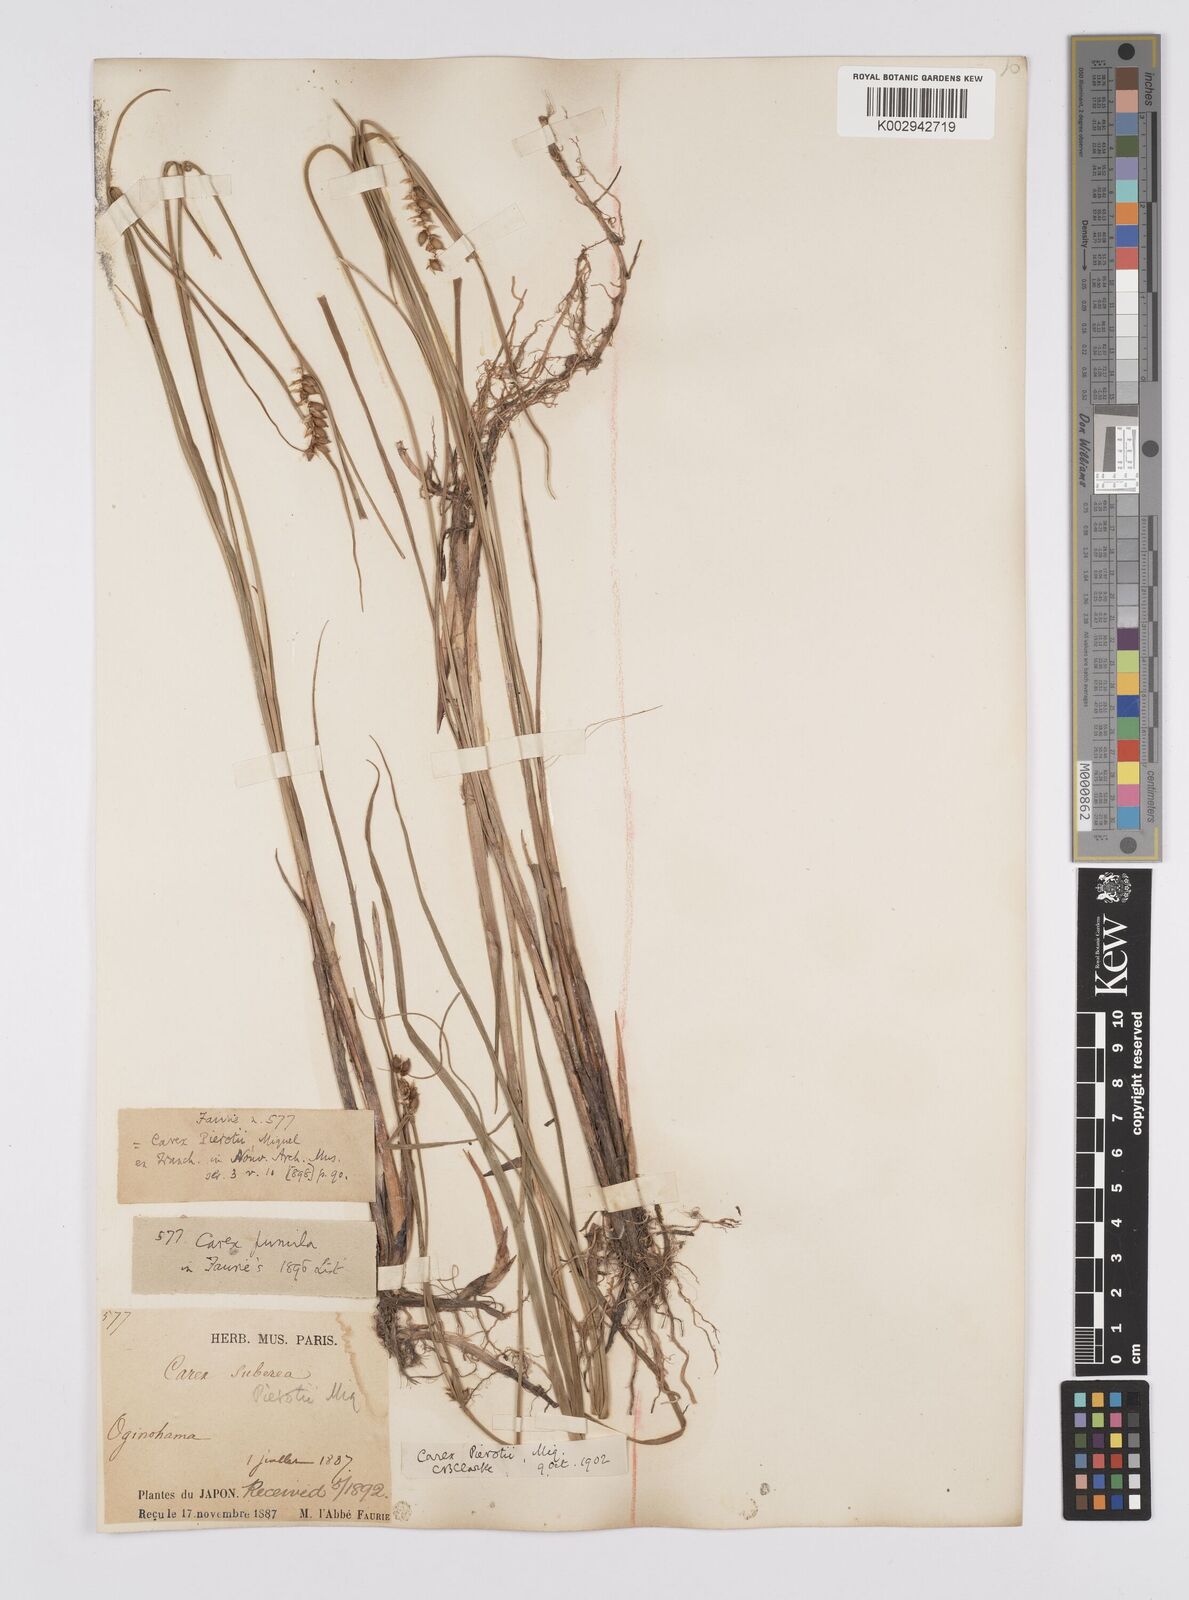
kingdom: Plantae
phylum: Tracheophyta
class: Liliopsida
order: Poales
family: Cyperaceae
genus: Carex
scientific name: Carex scabrifolia
